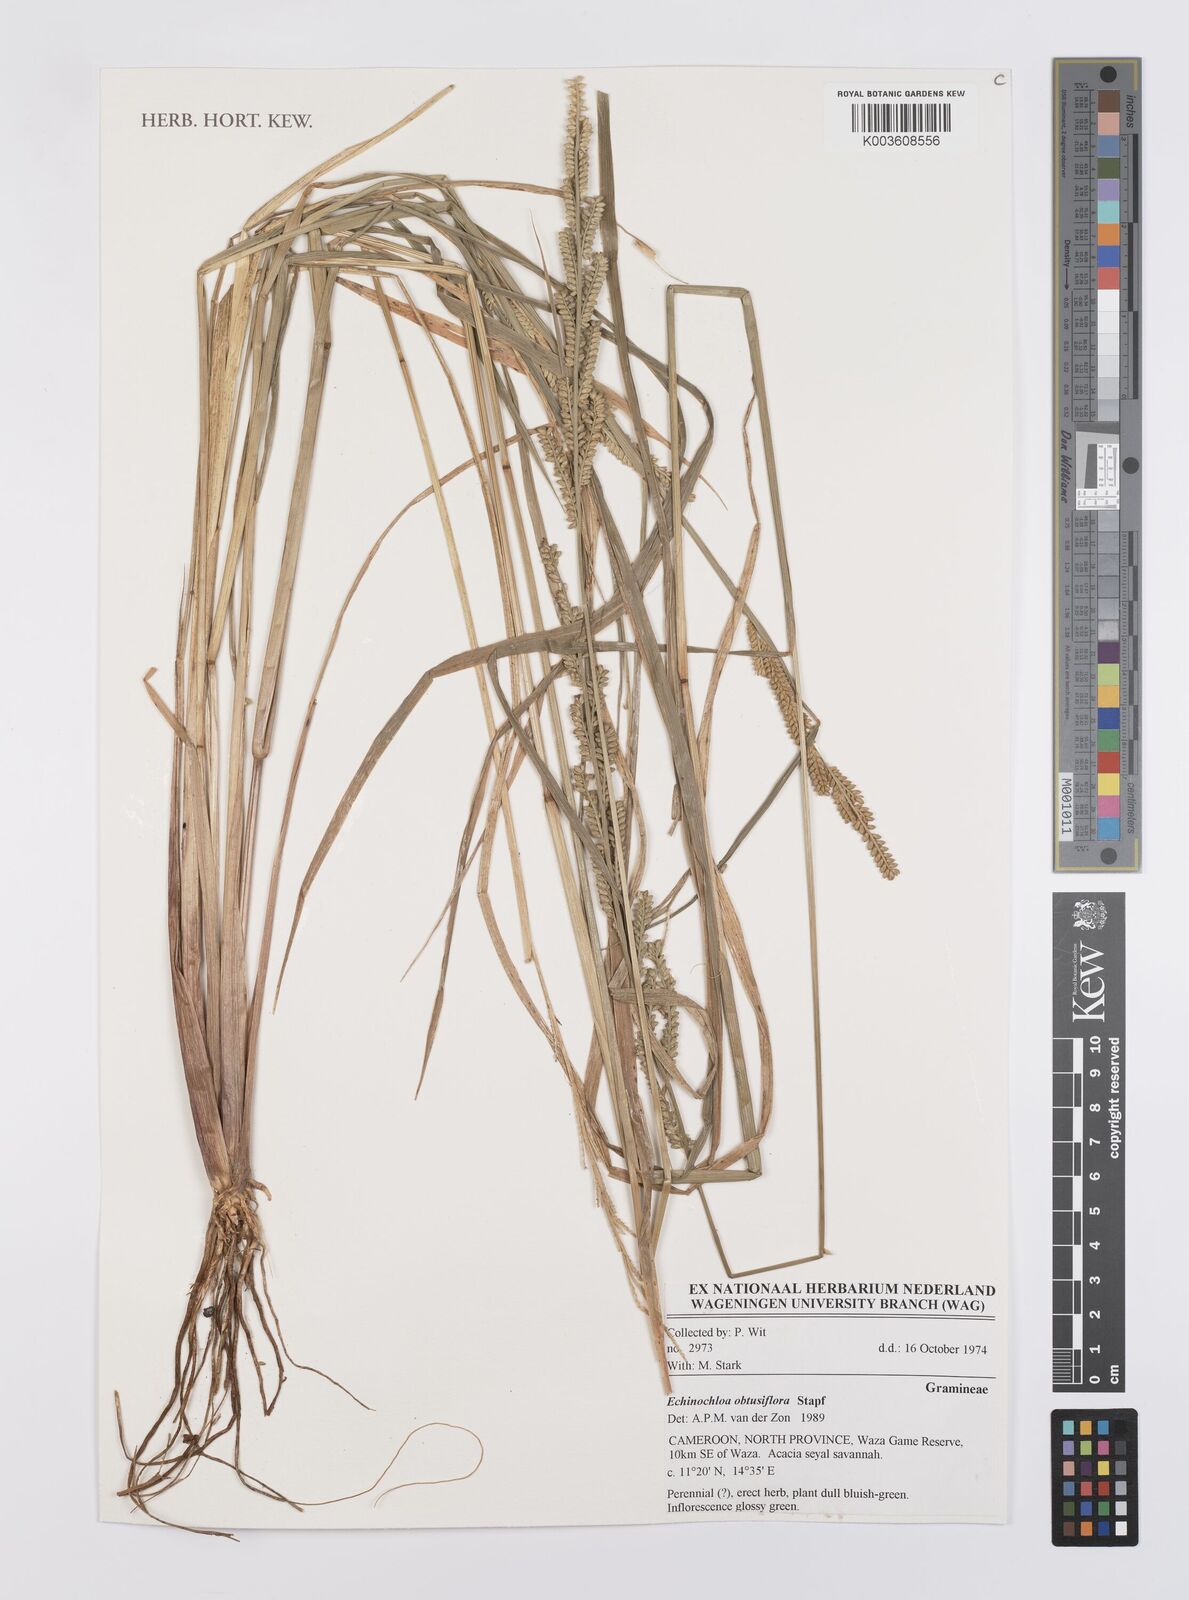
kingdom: Plantae
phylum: Tracheophyta
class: Liliopsida
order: Poales
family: Poaceae
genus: Echinochloa
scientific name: Echinochloa obtusiflora
